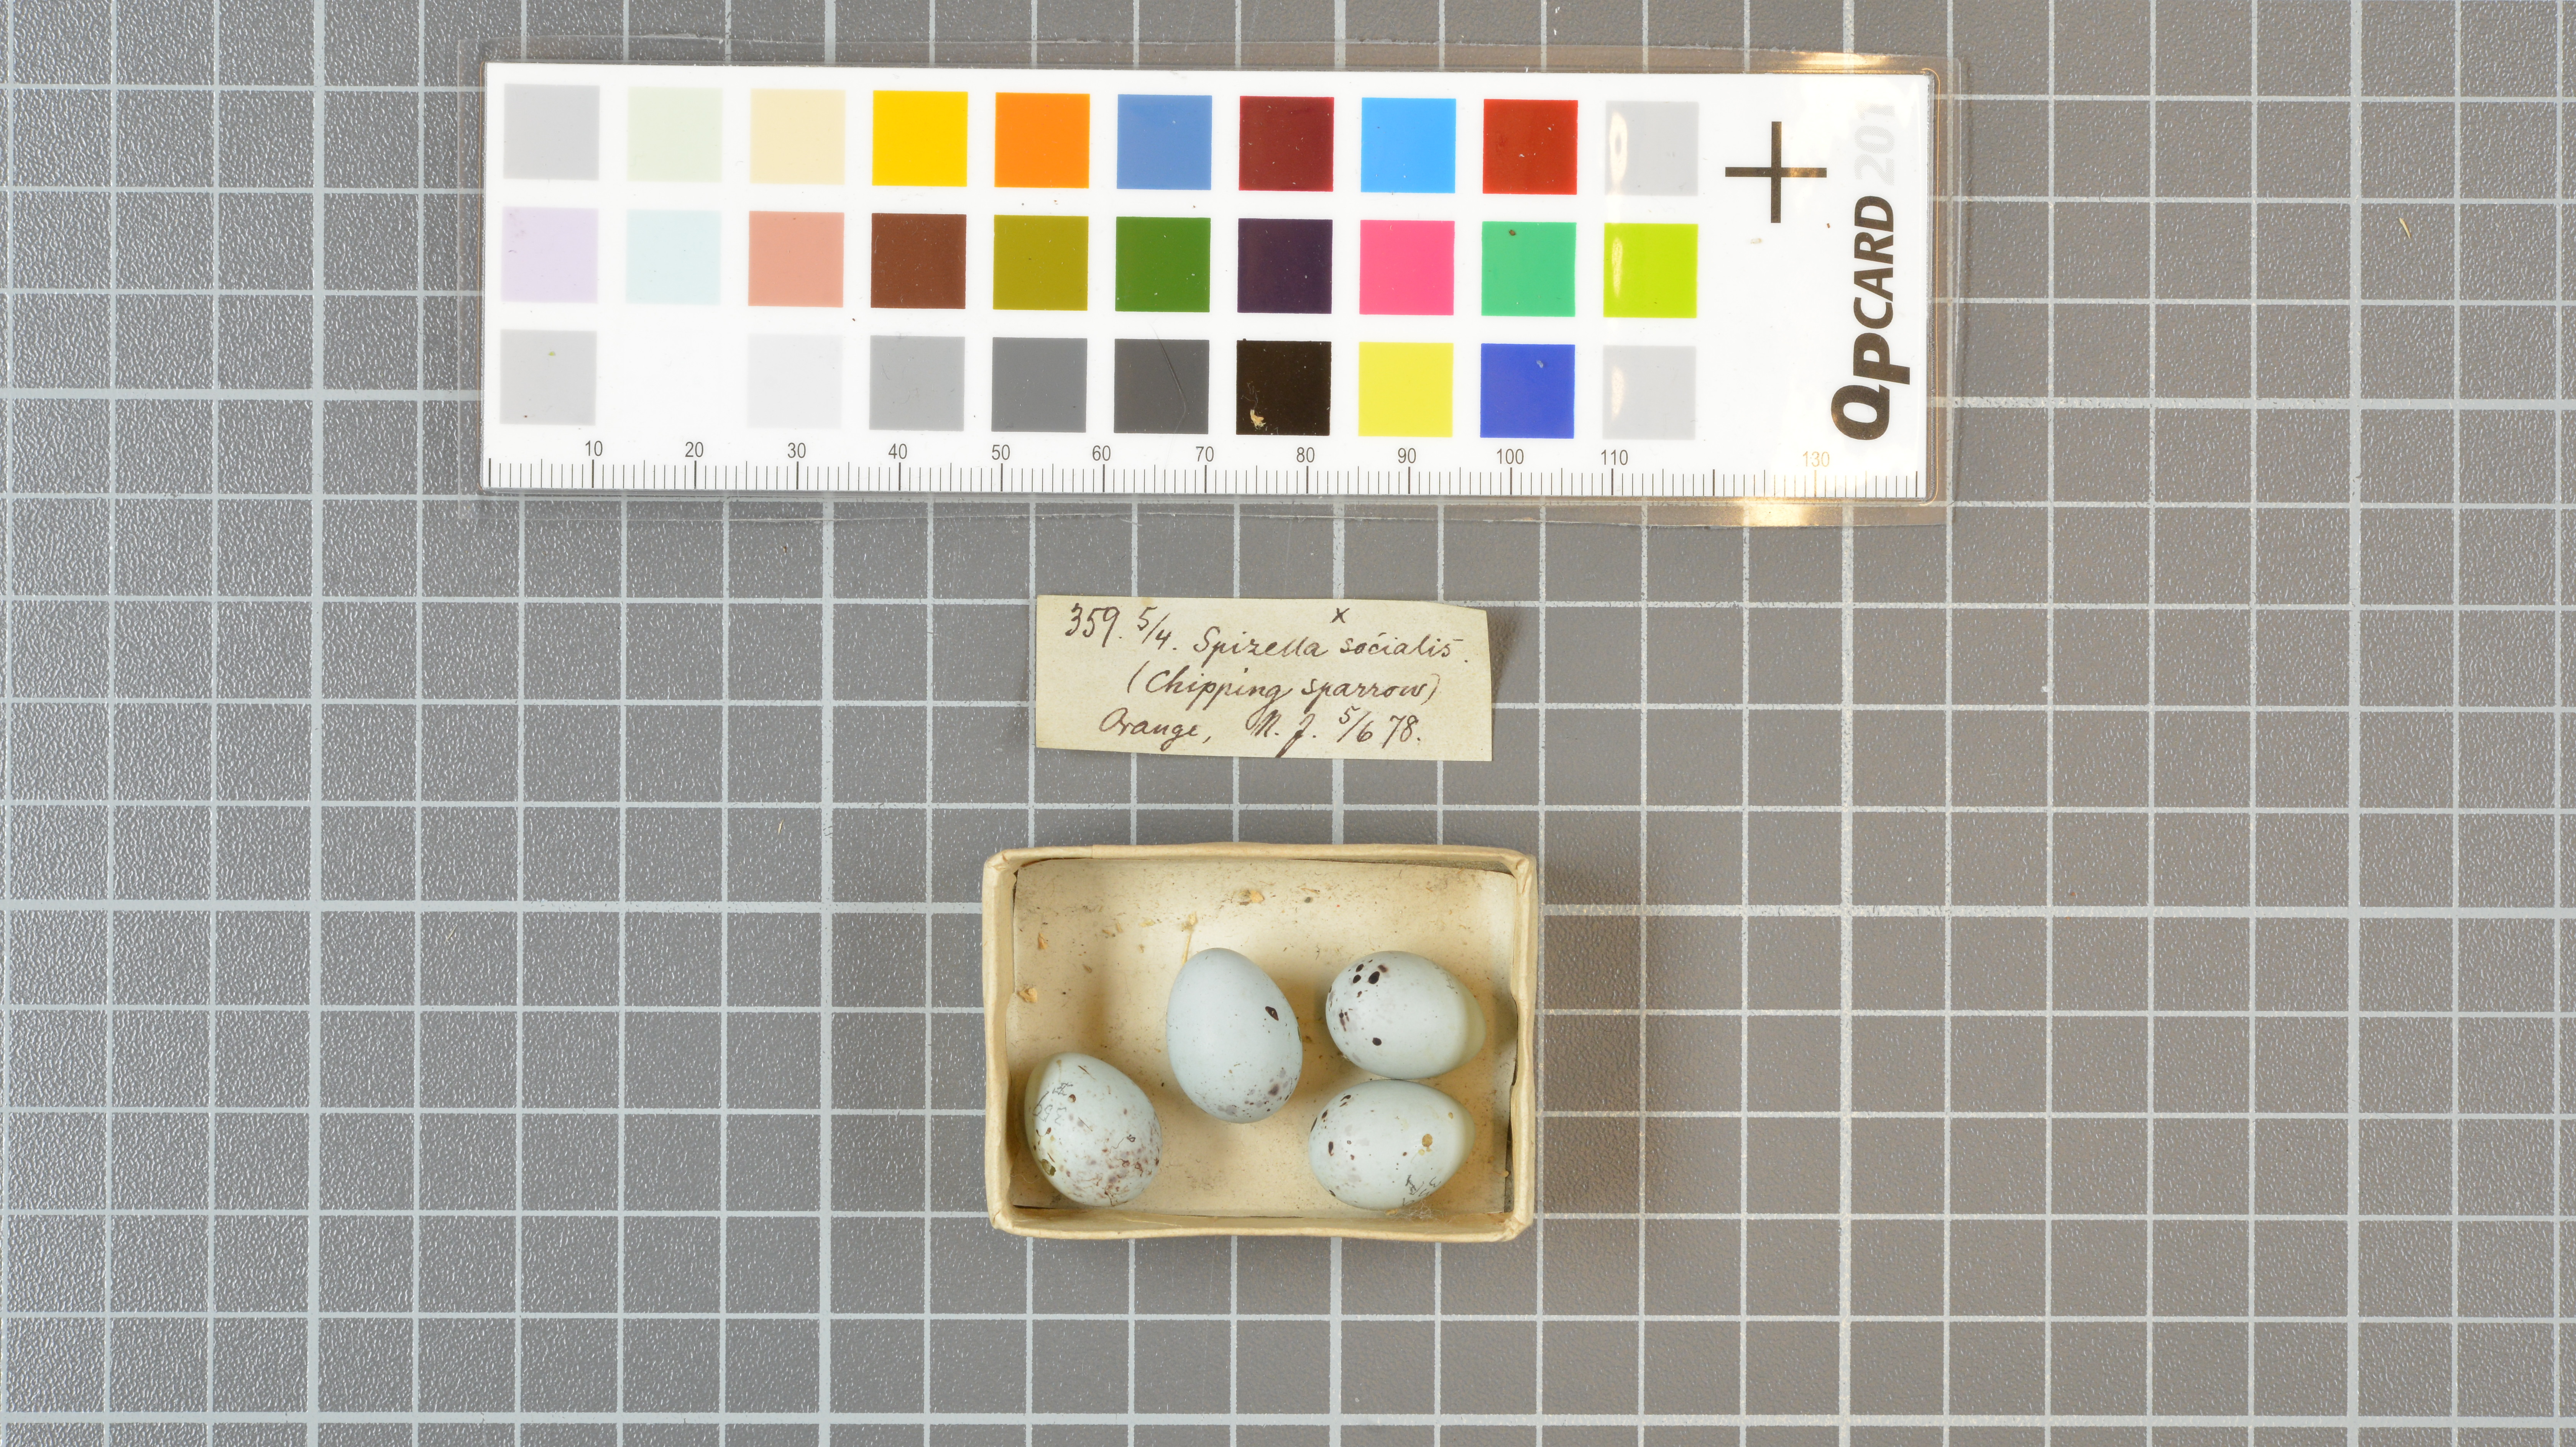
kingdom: Animalia
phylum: Chordata
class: Aves
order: Passeriformes
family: Passerellidae
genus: Spizella
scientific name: Spizella passerina
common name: Chipping sparrow
